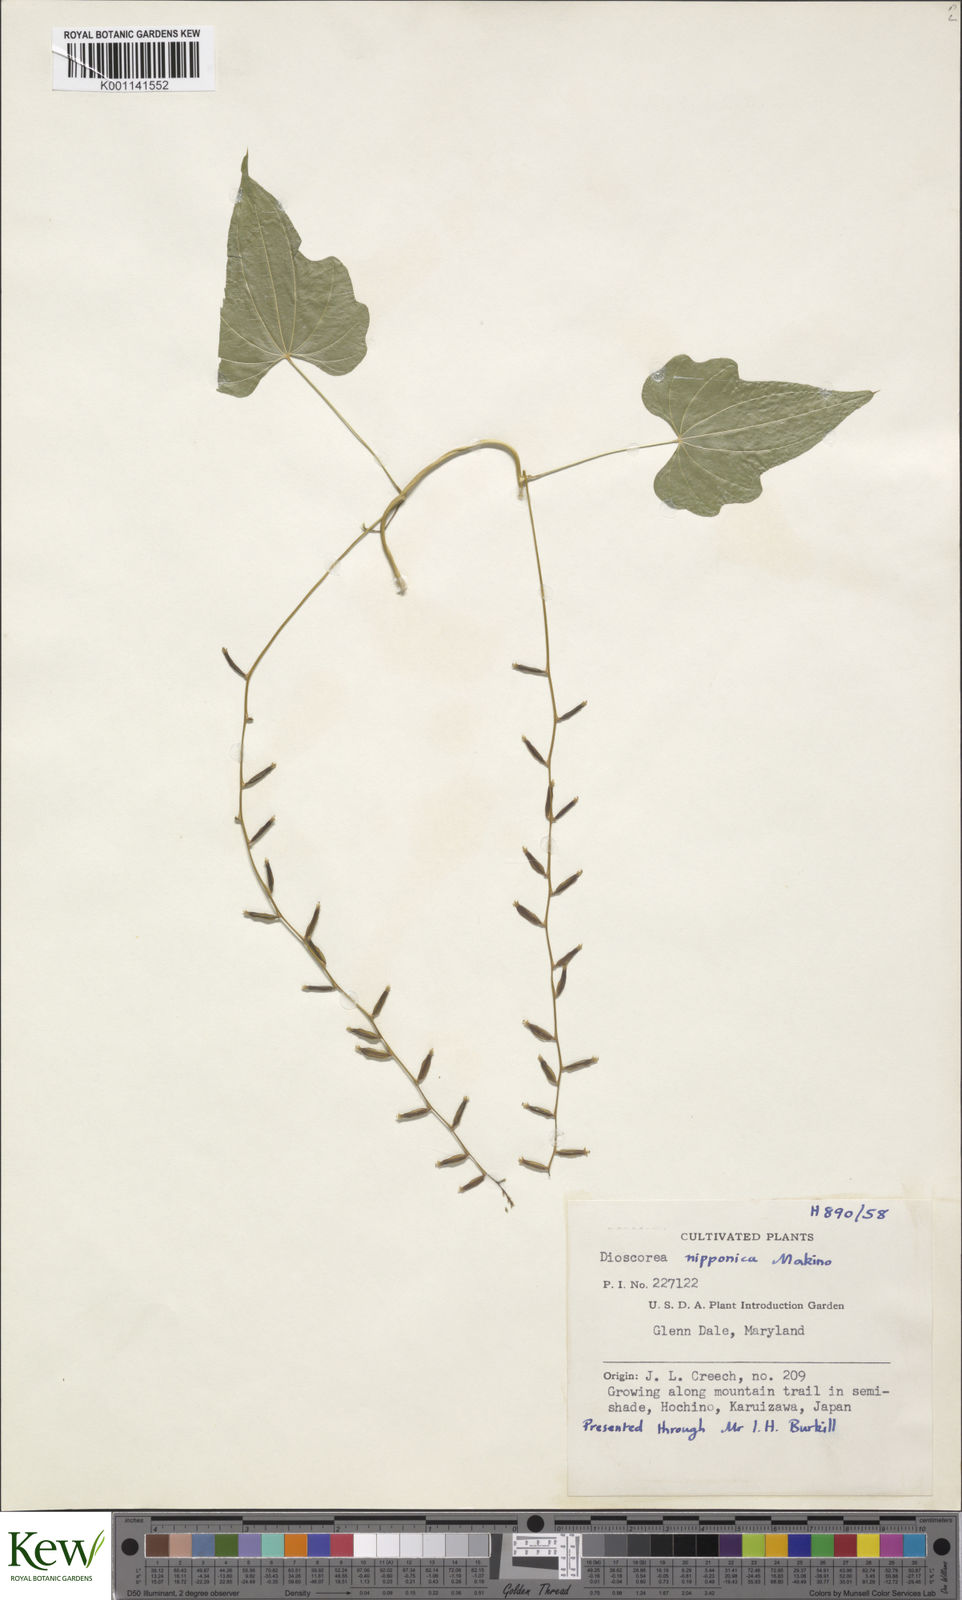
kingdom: Plantae
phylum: Tracheophyta
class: Liliopsida
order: Dioscoreales
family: Dioscoreaceae
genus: Dioscorea
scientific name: Dioscorea nipponica
